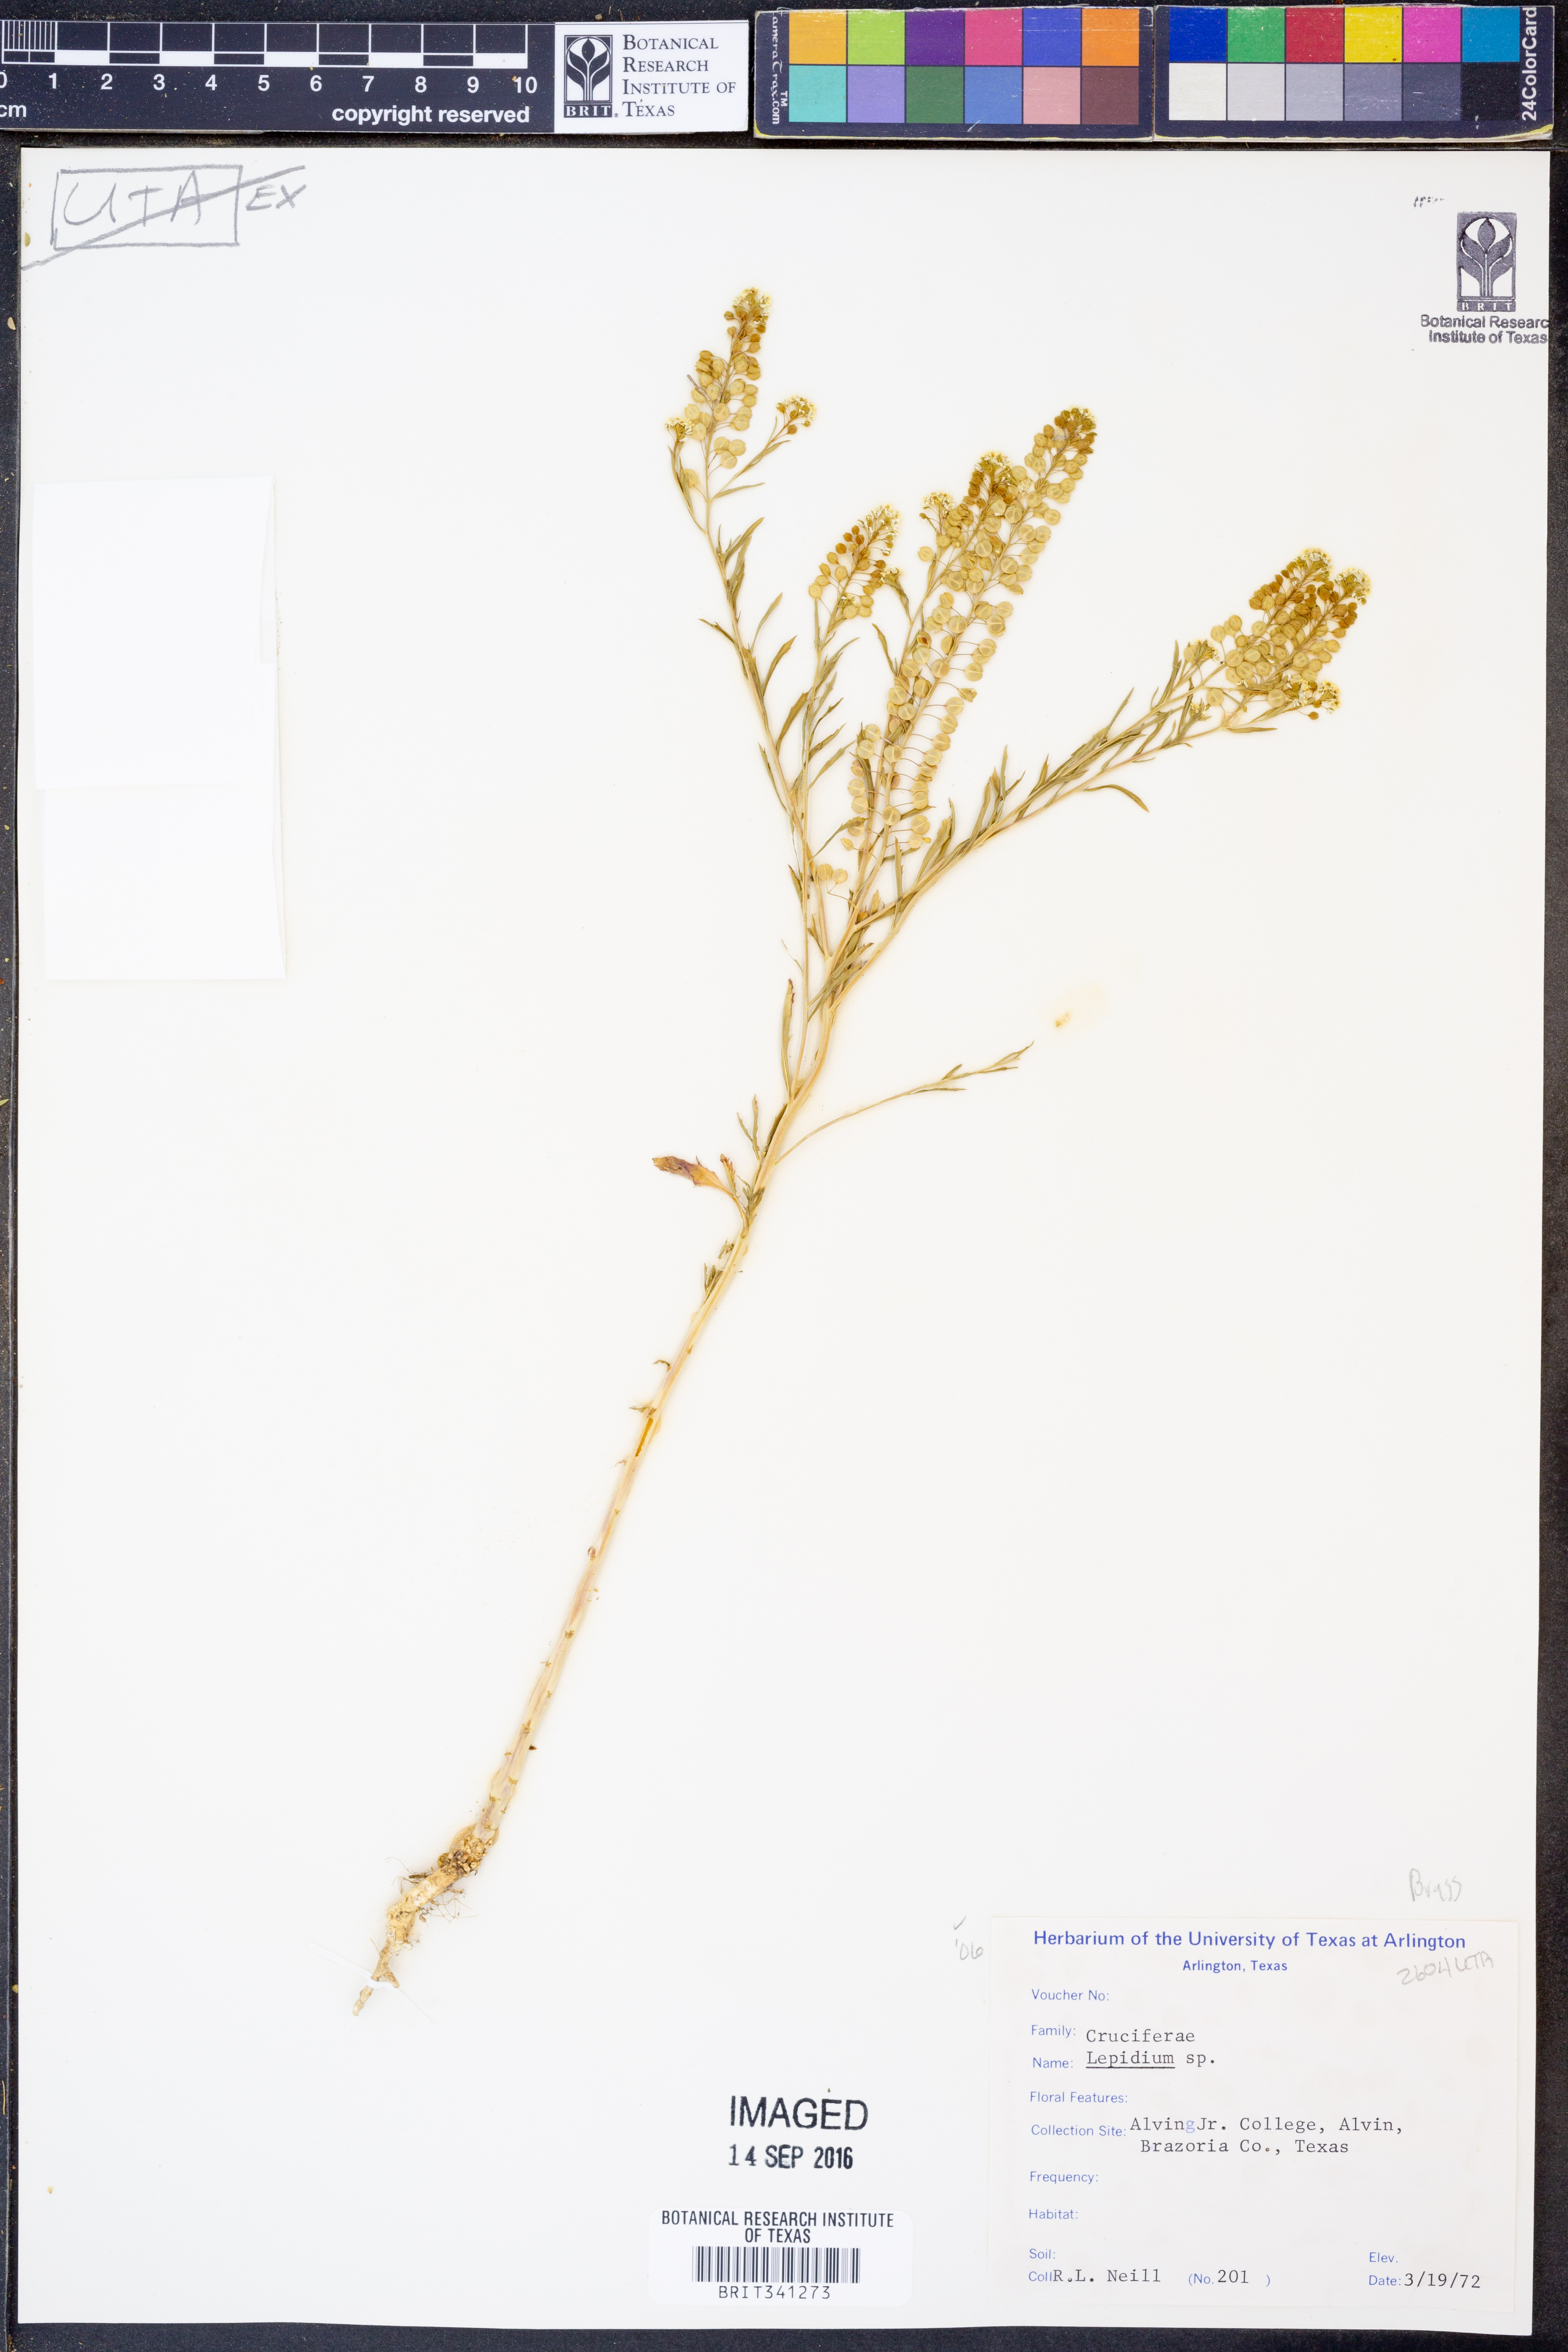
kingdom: Plantae
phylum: Tracheophyta
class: Magnoliopsida
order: Brassicales
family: Brassicaceae
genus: Lepidium
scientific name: Lepidium
